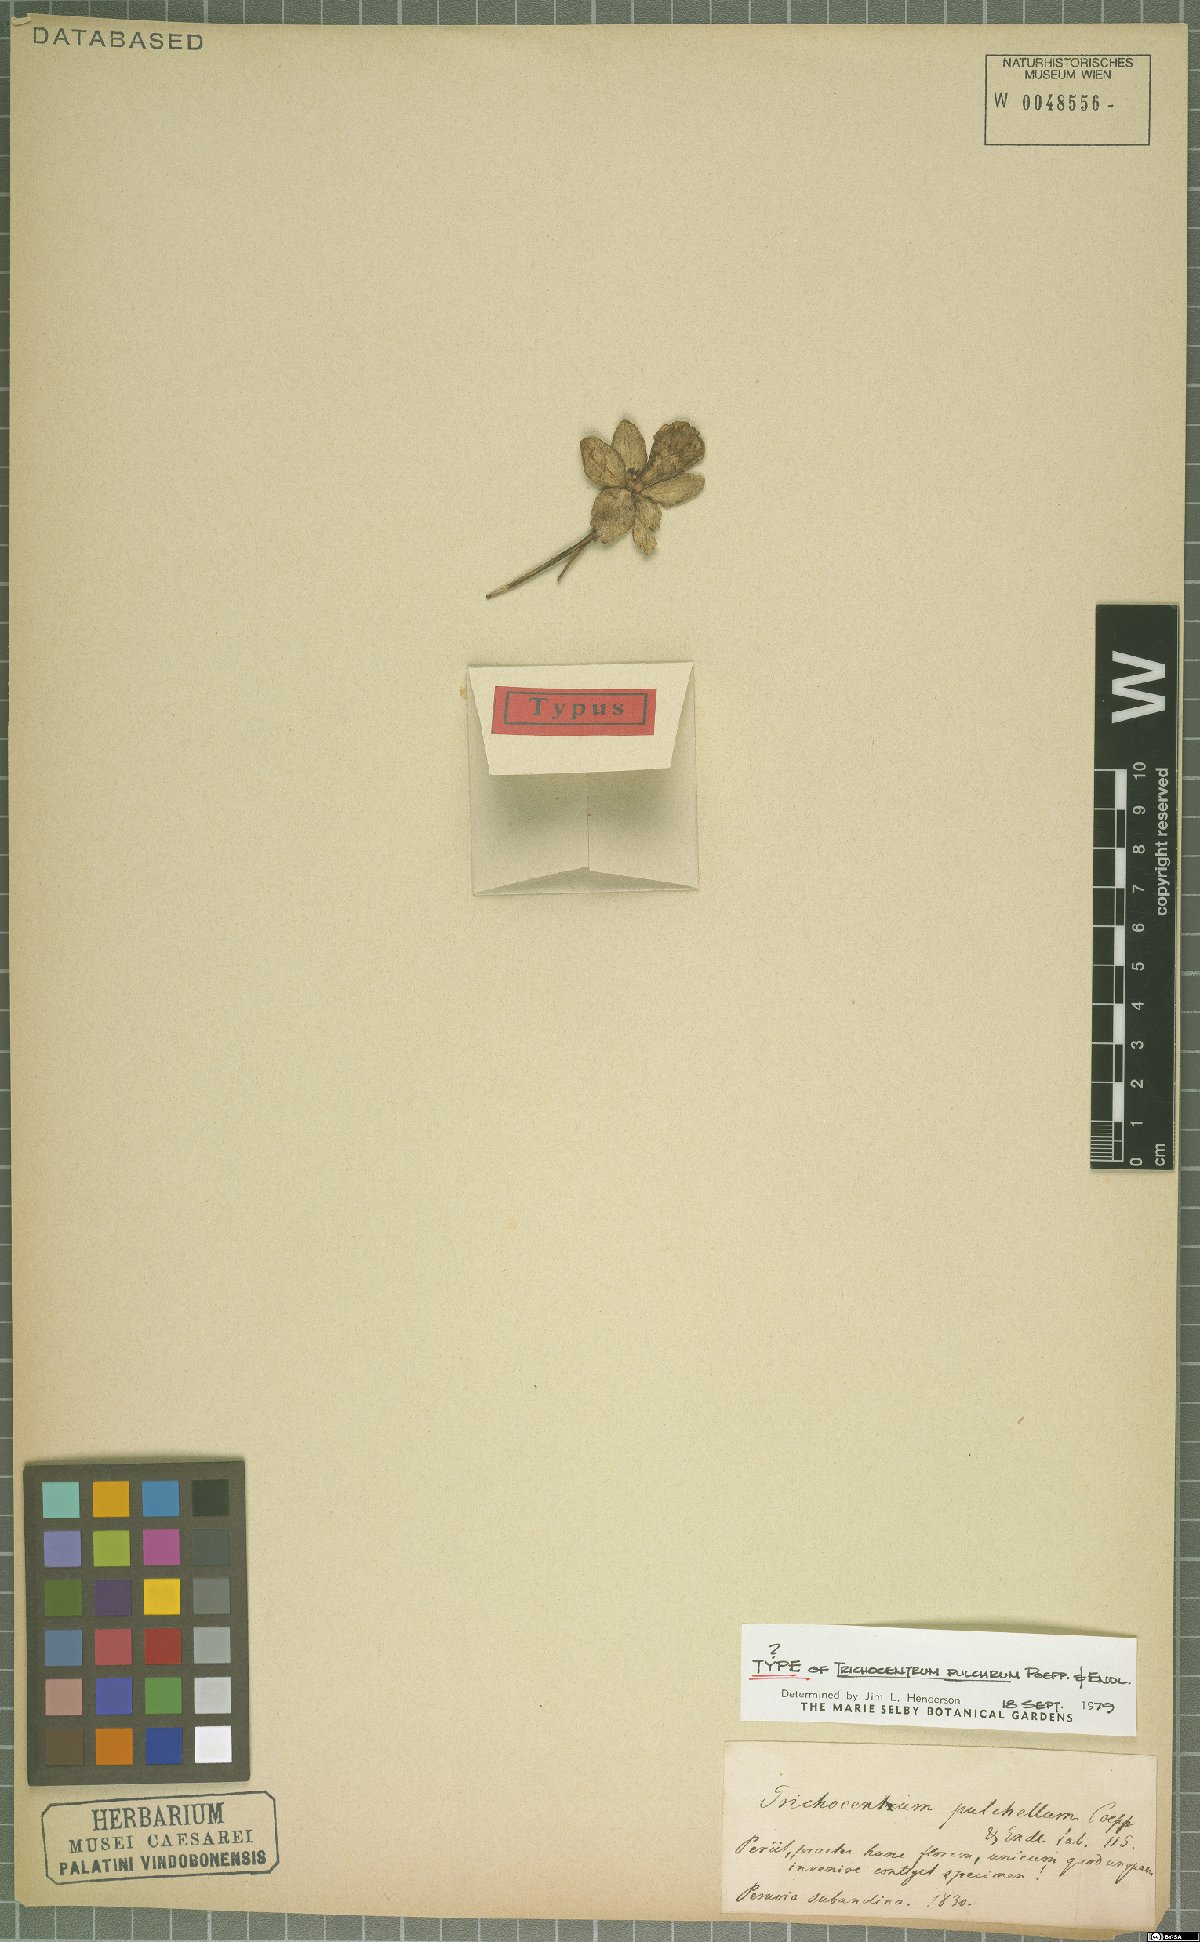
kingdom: Plantae
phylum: Tracheophyta
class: Liliopsida
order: Asparagales
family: Orchidaceae
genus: Trichocentrum
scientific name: Trichocentrum pulchrum
